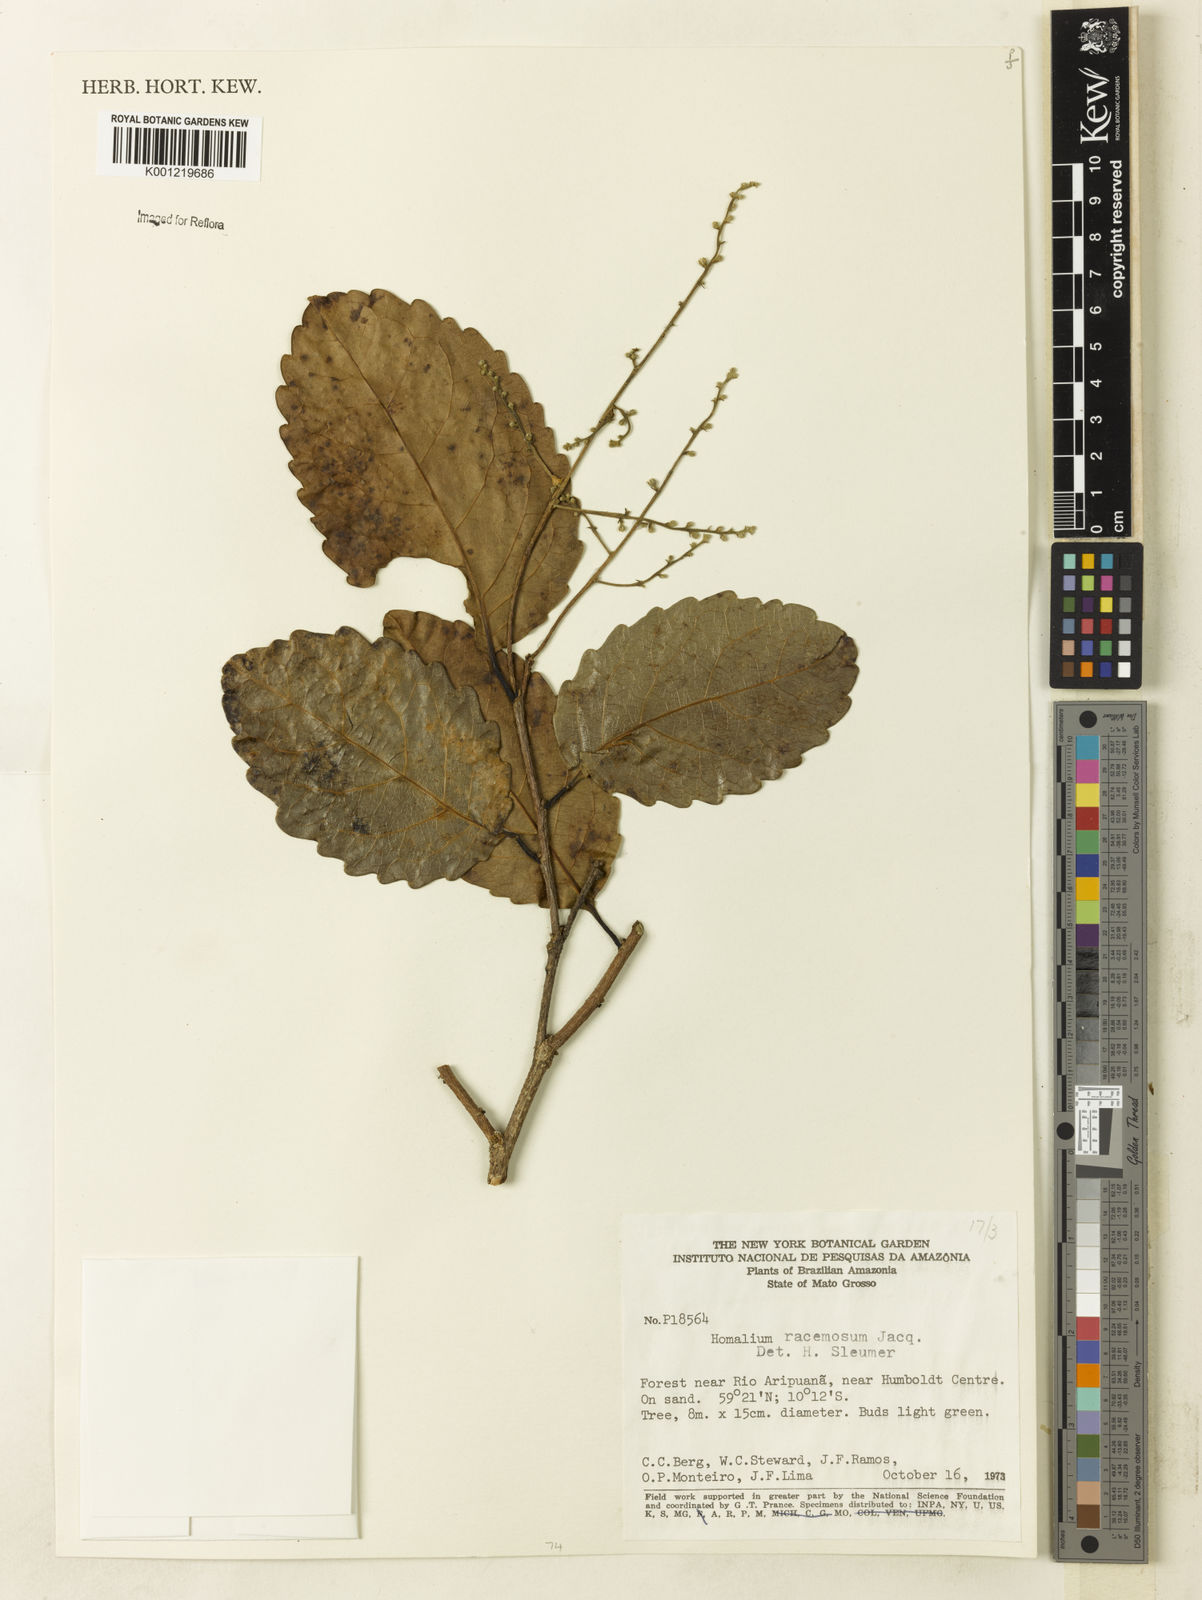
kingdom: Plantae
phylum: Tracheophyta
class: Magnoliopsida
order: Malpighiales
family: Salicaceae
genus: Homalium
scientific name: Homalium racemosum
